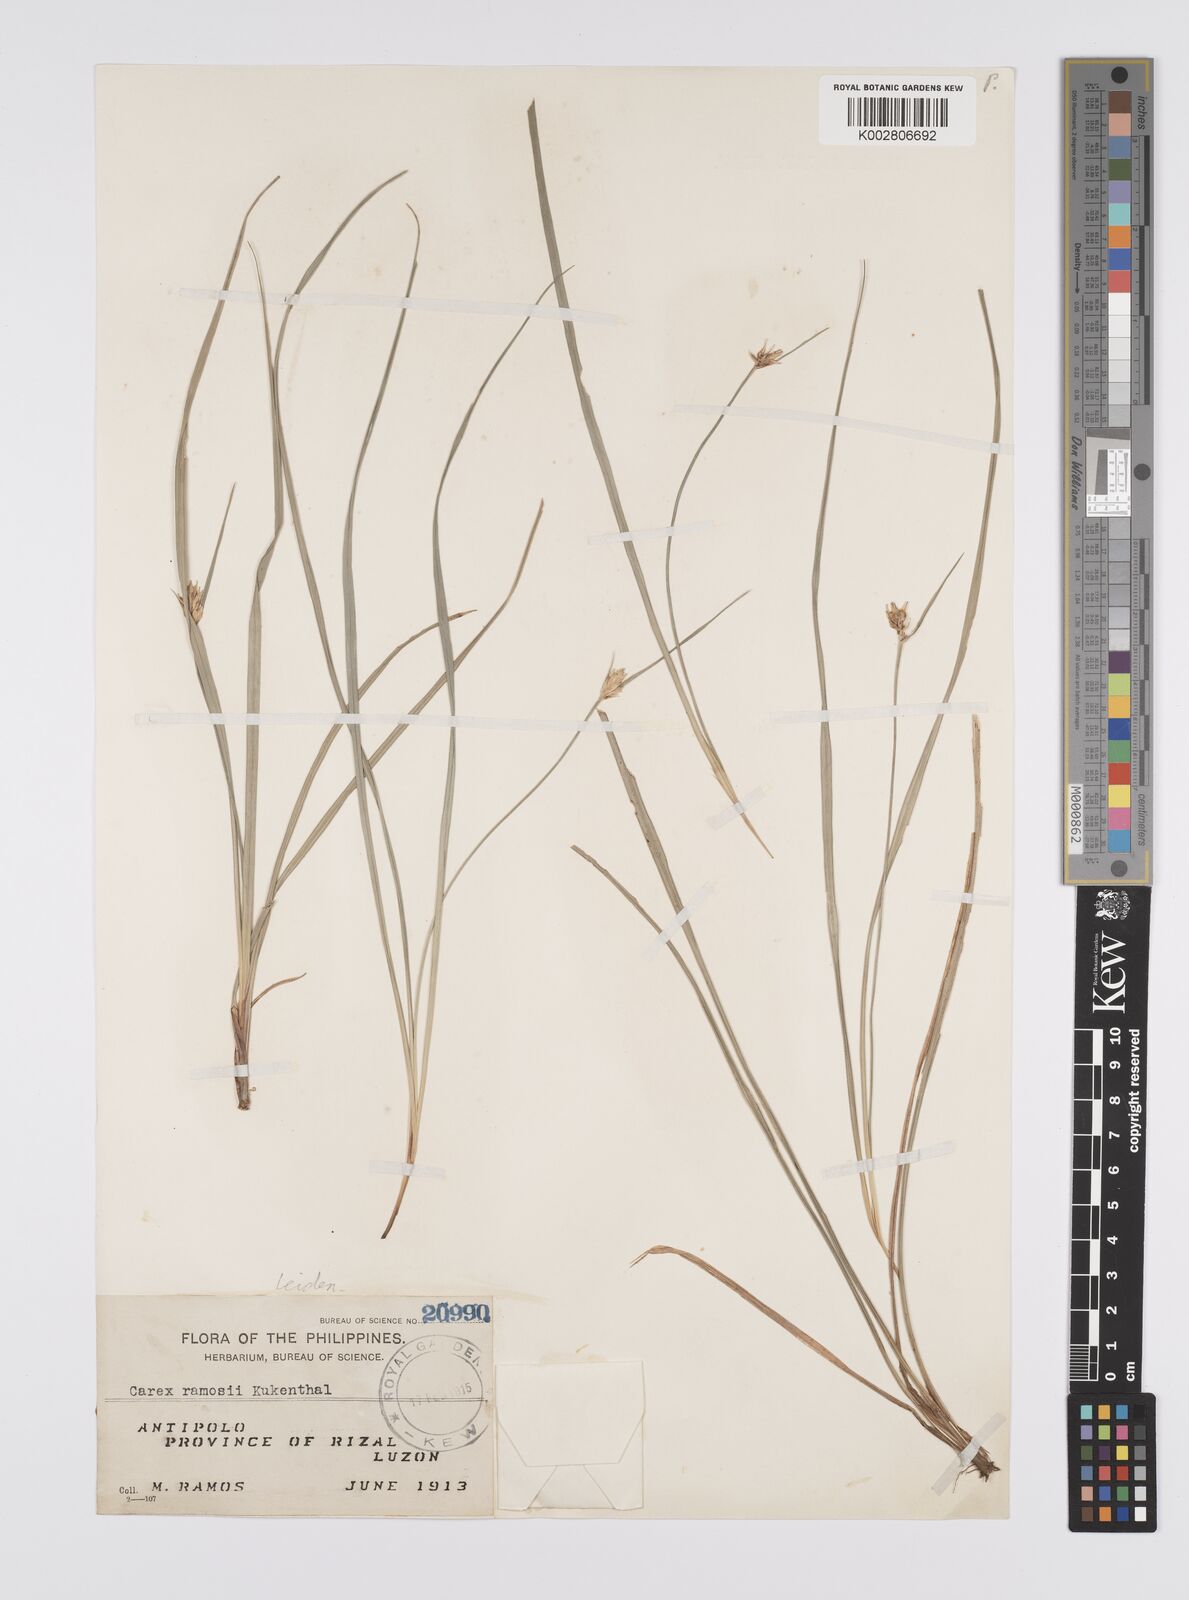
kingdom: Plantae
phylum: Tracheophyta
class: Liliopsida
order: Poales
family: Cyperaceae
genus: Carex
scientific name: Carex ramosii
